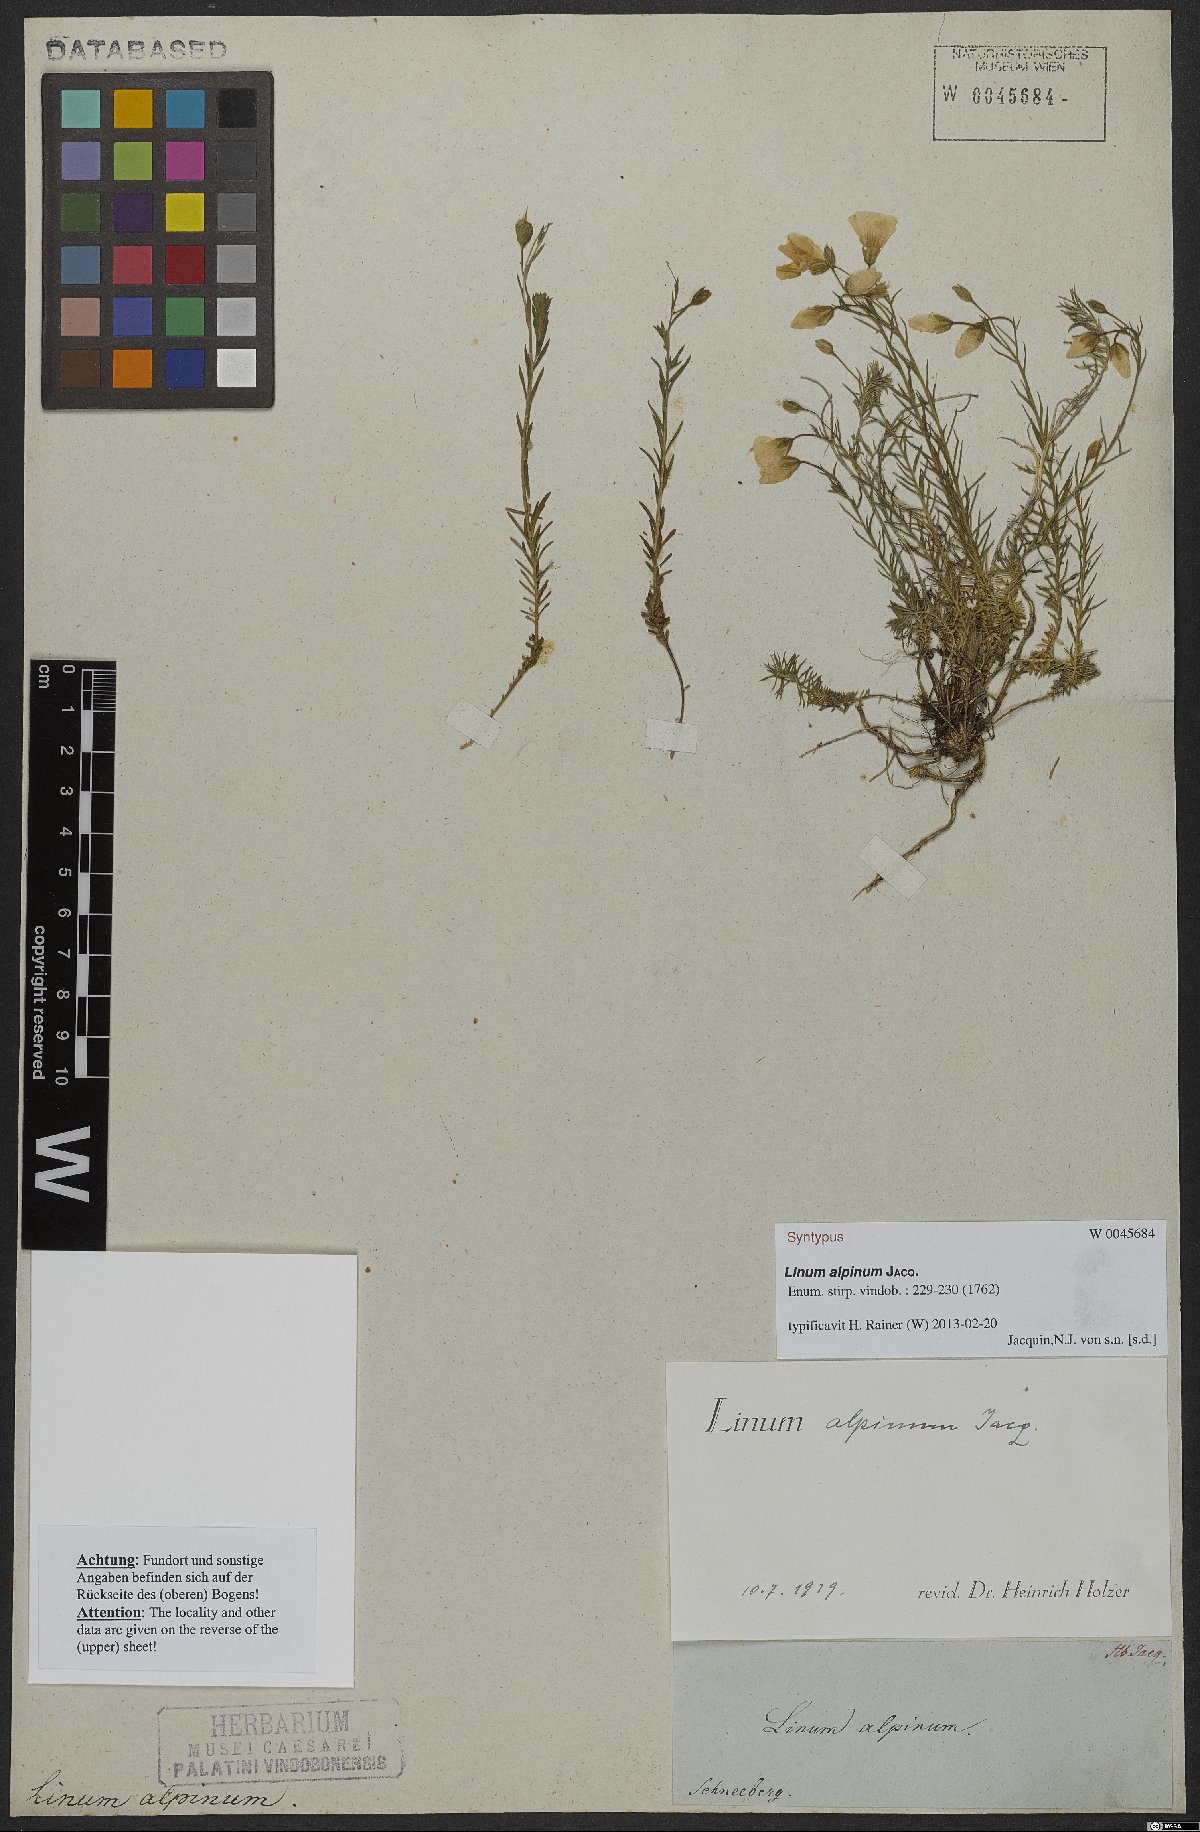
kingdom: Plantae
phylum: Tracheophyta
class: Magnoliopsida
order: Malpighiales
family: Linaceae
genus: Linum
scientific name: Linum alpinum
